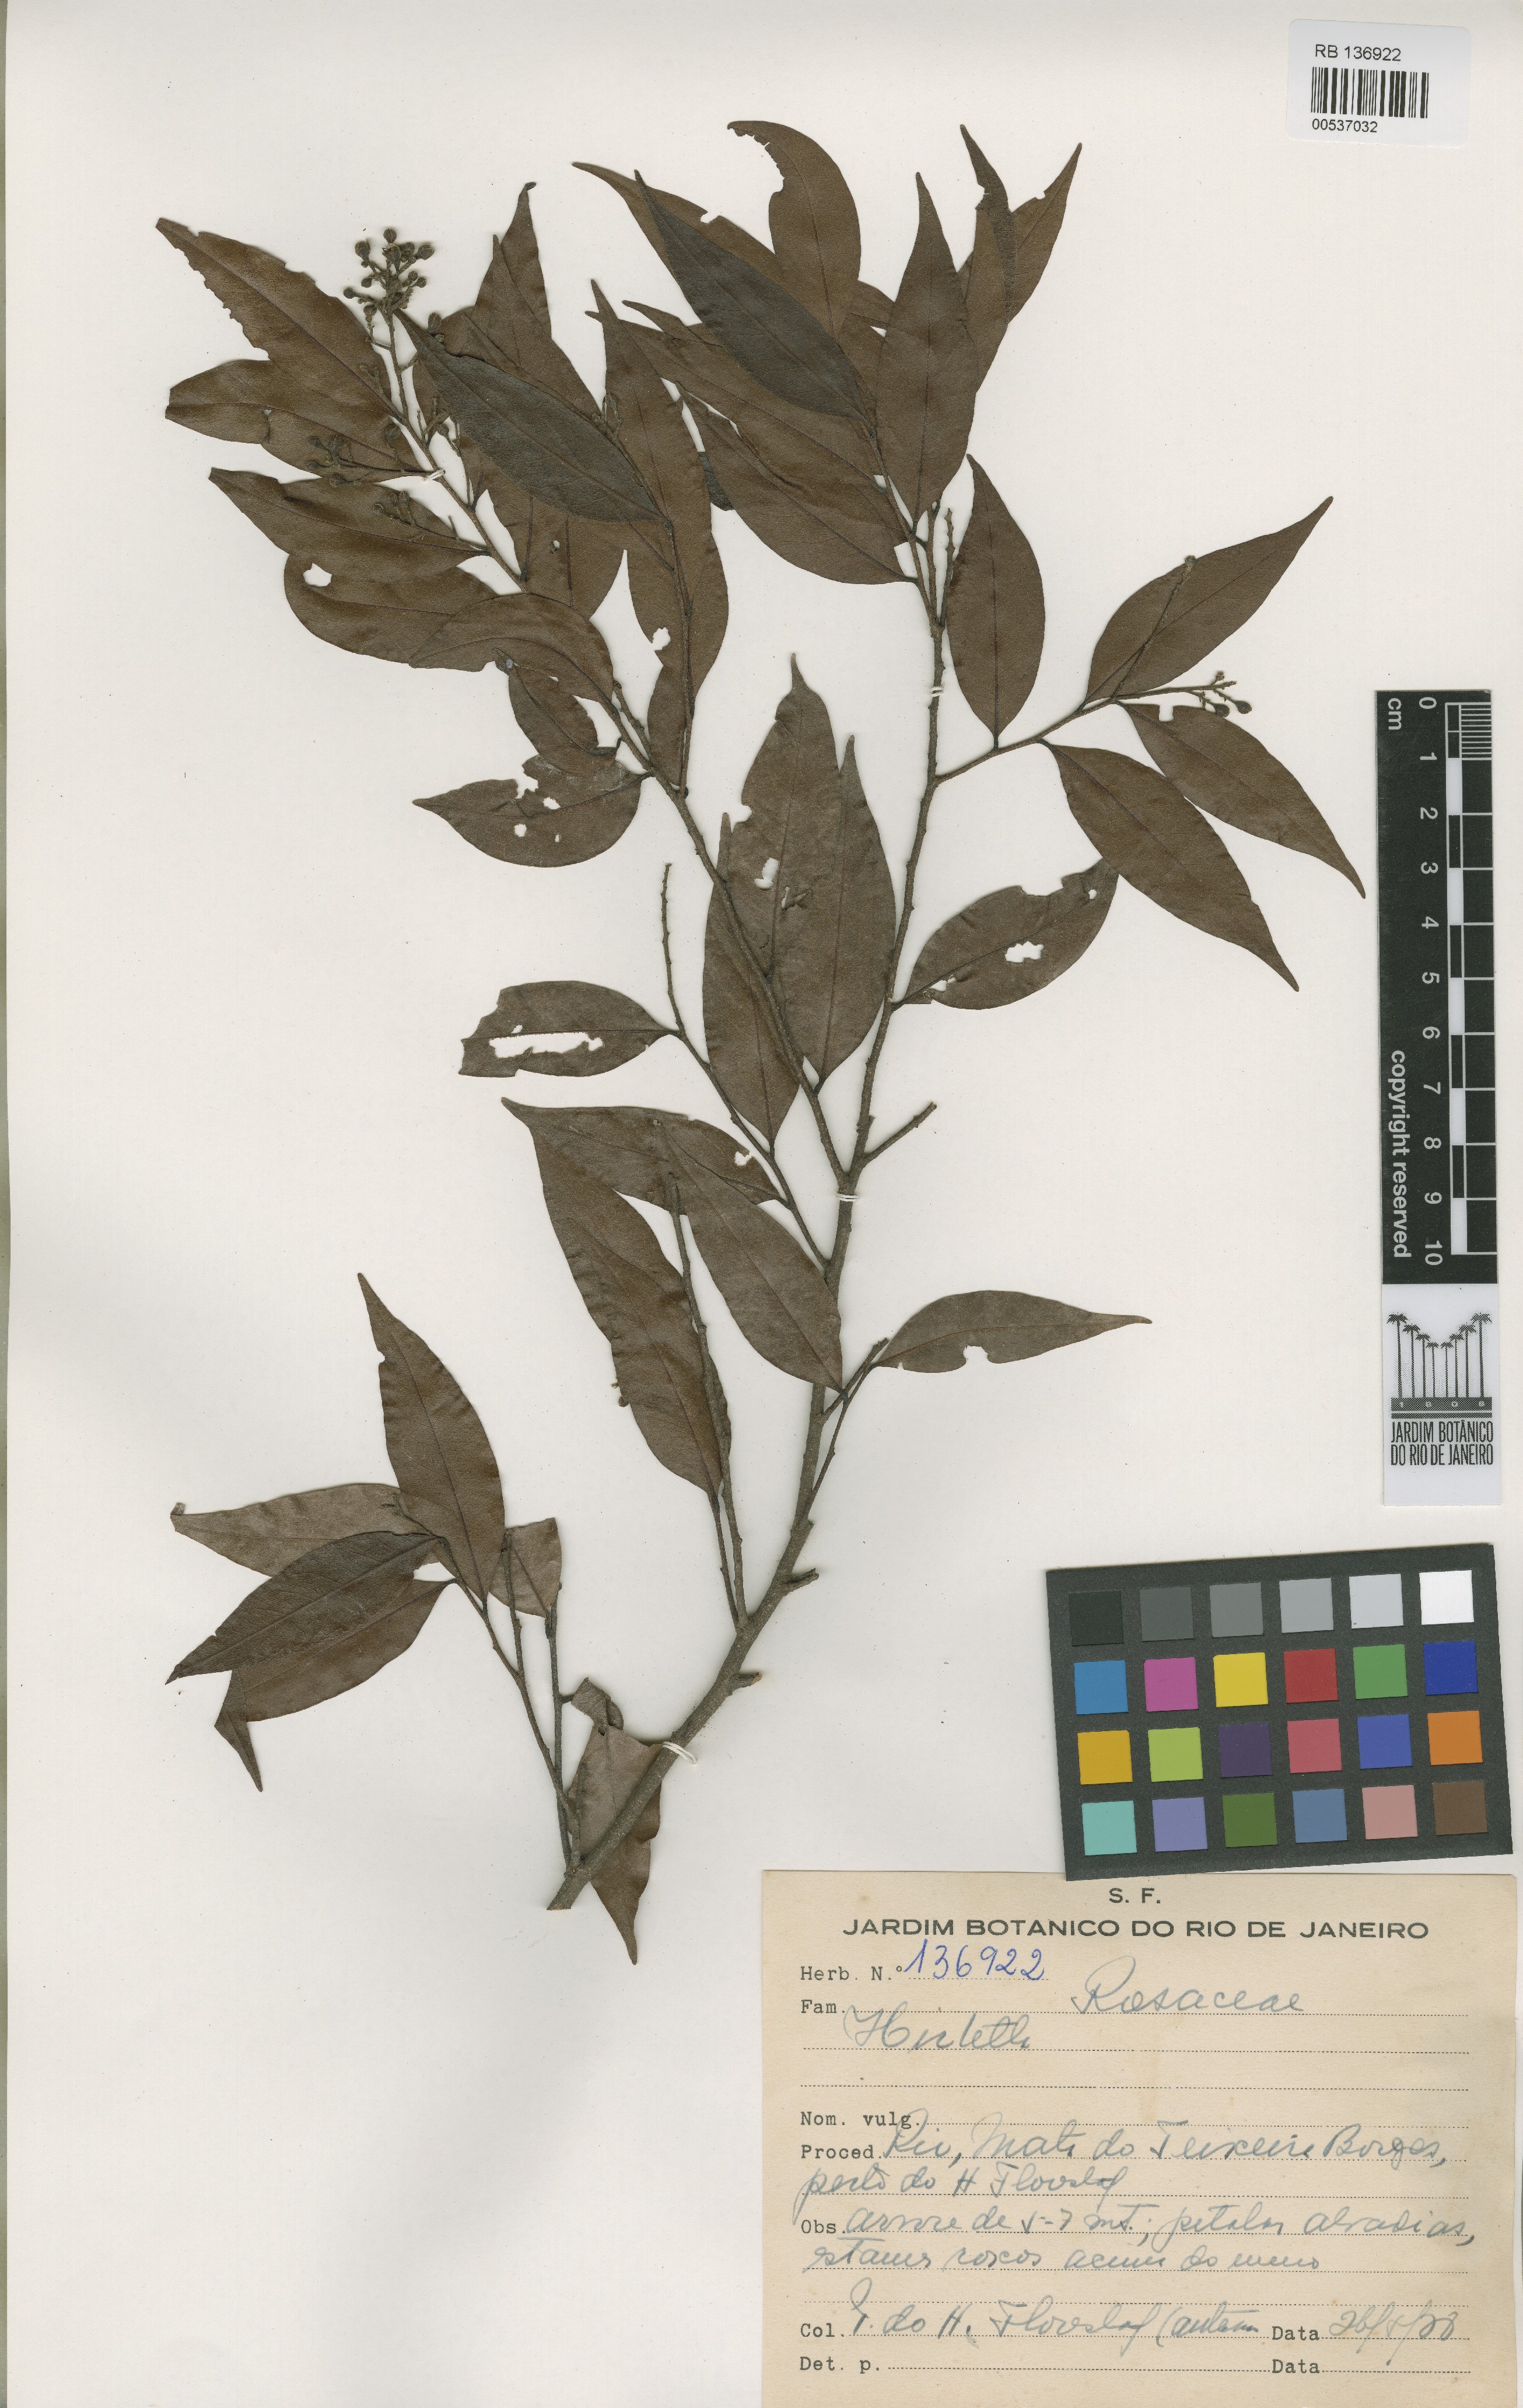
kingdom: Plantae
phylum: Tracheophyta
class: Magnoliopsida
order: Malpighiales
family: Chrysobalanaceae
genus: Hirtella
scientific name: Hirtella barrosoi
